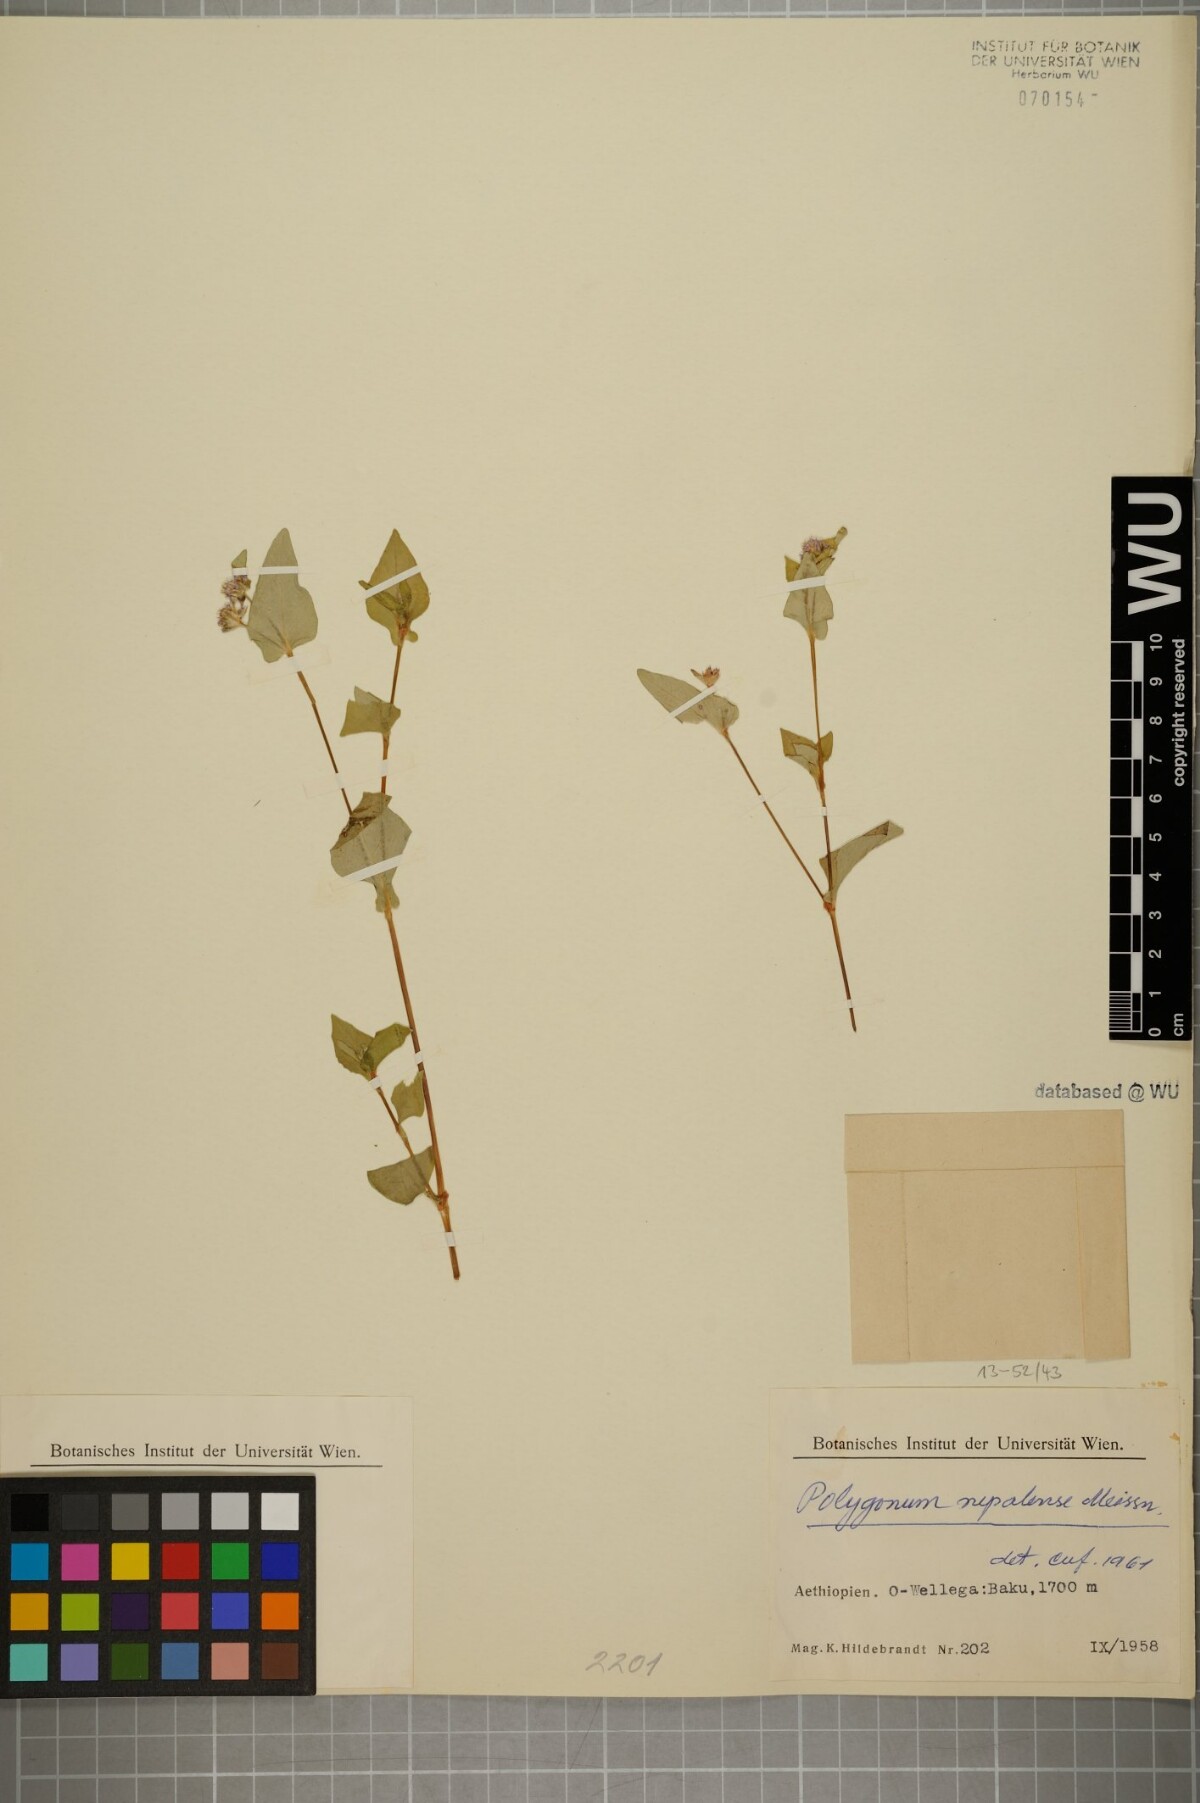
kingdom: Plantae
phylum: Tracheophyta
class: Magnoliopsida
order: Caryophyllales
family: Polygonaceae
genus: Persicaria
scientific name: Persicaria nepalensis
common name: Nepal persicaria
